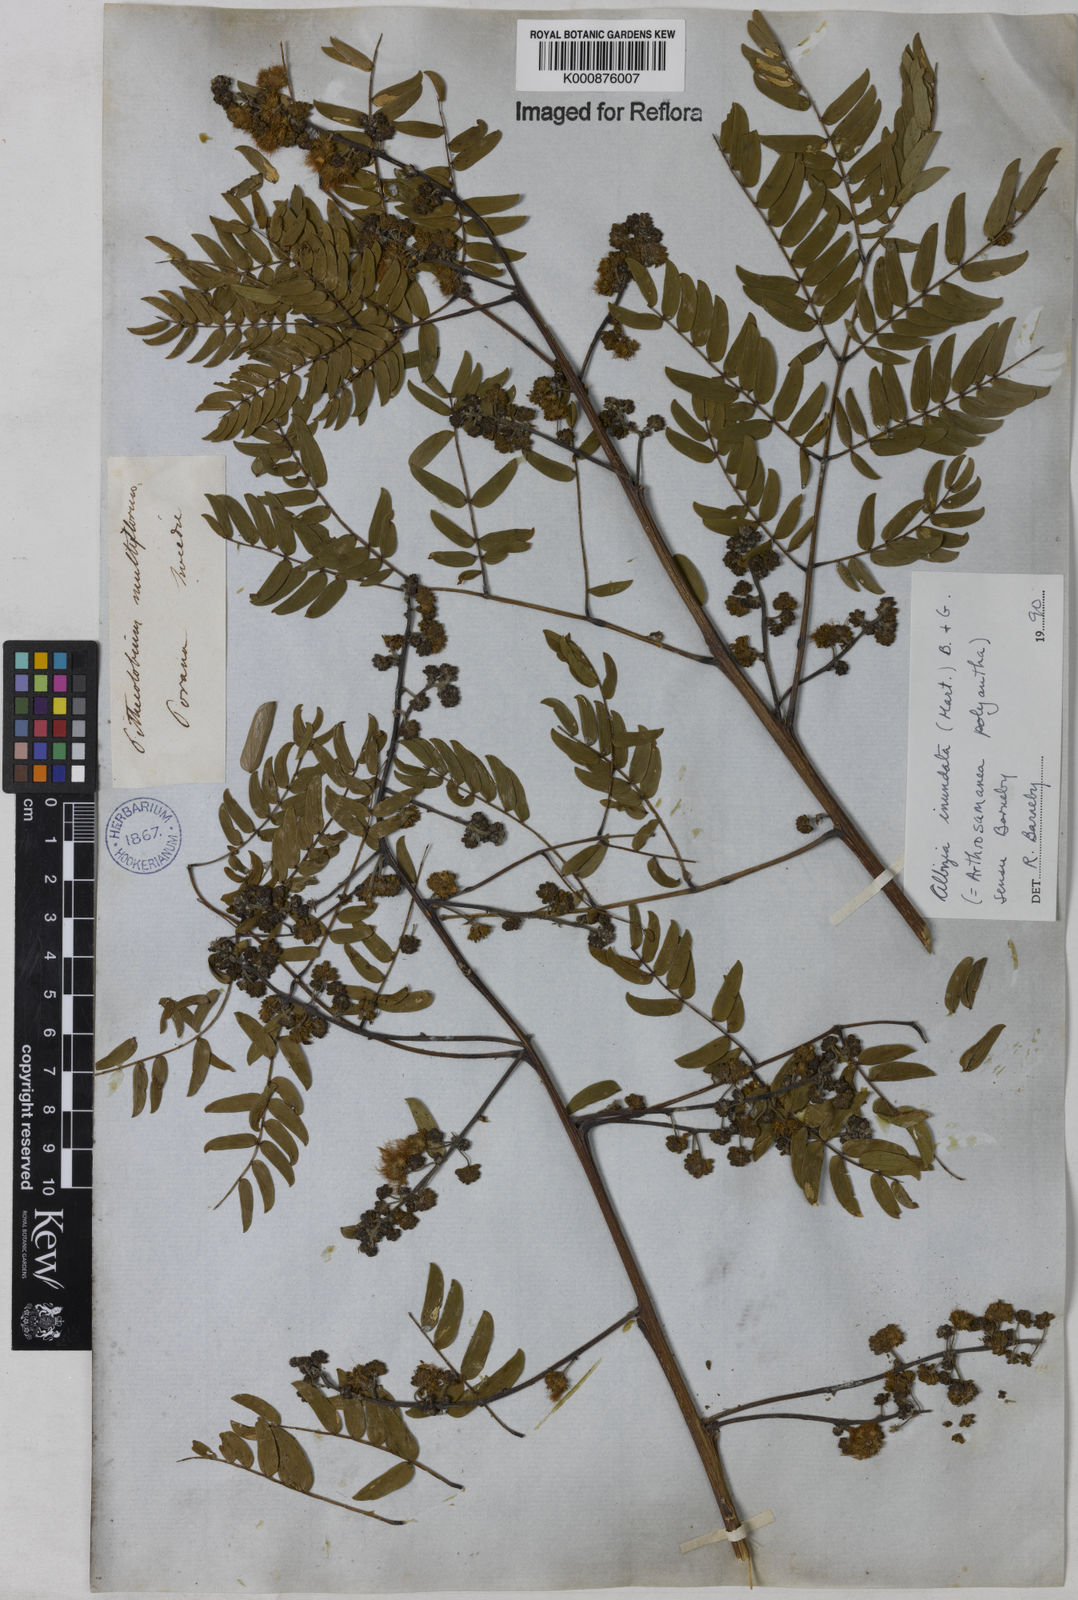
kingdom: Plantae
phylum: Tracheophyta
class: Magnoliopsida
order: Fabales
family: Fabaceae
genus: Albizia
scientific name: Albizia inundata
